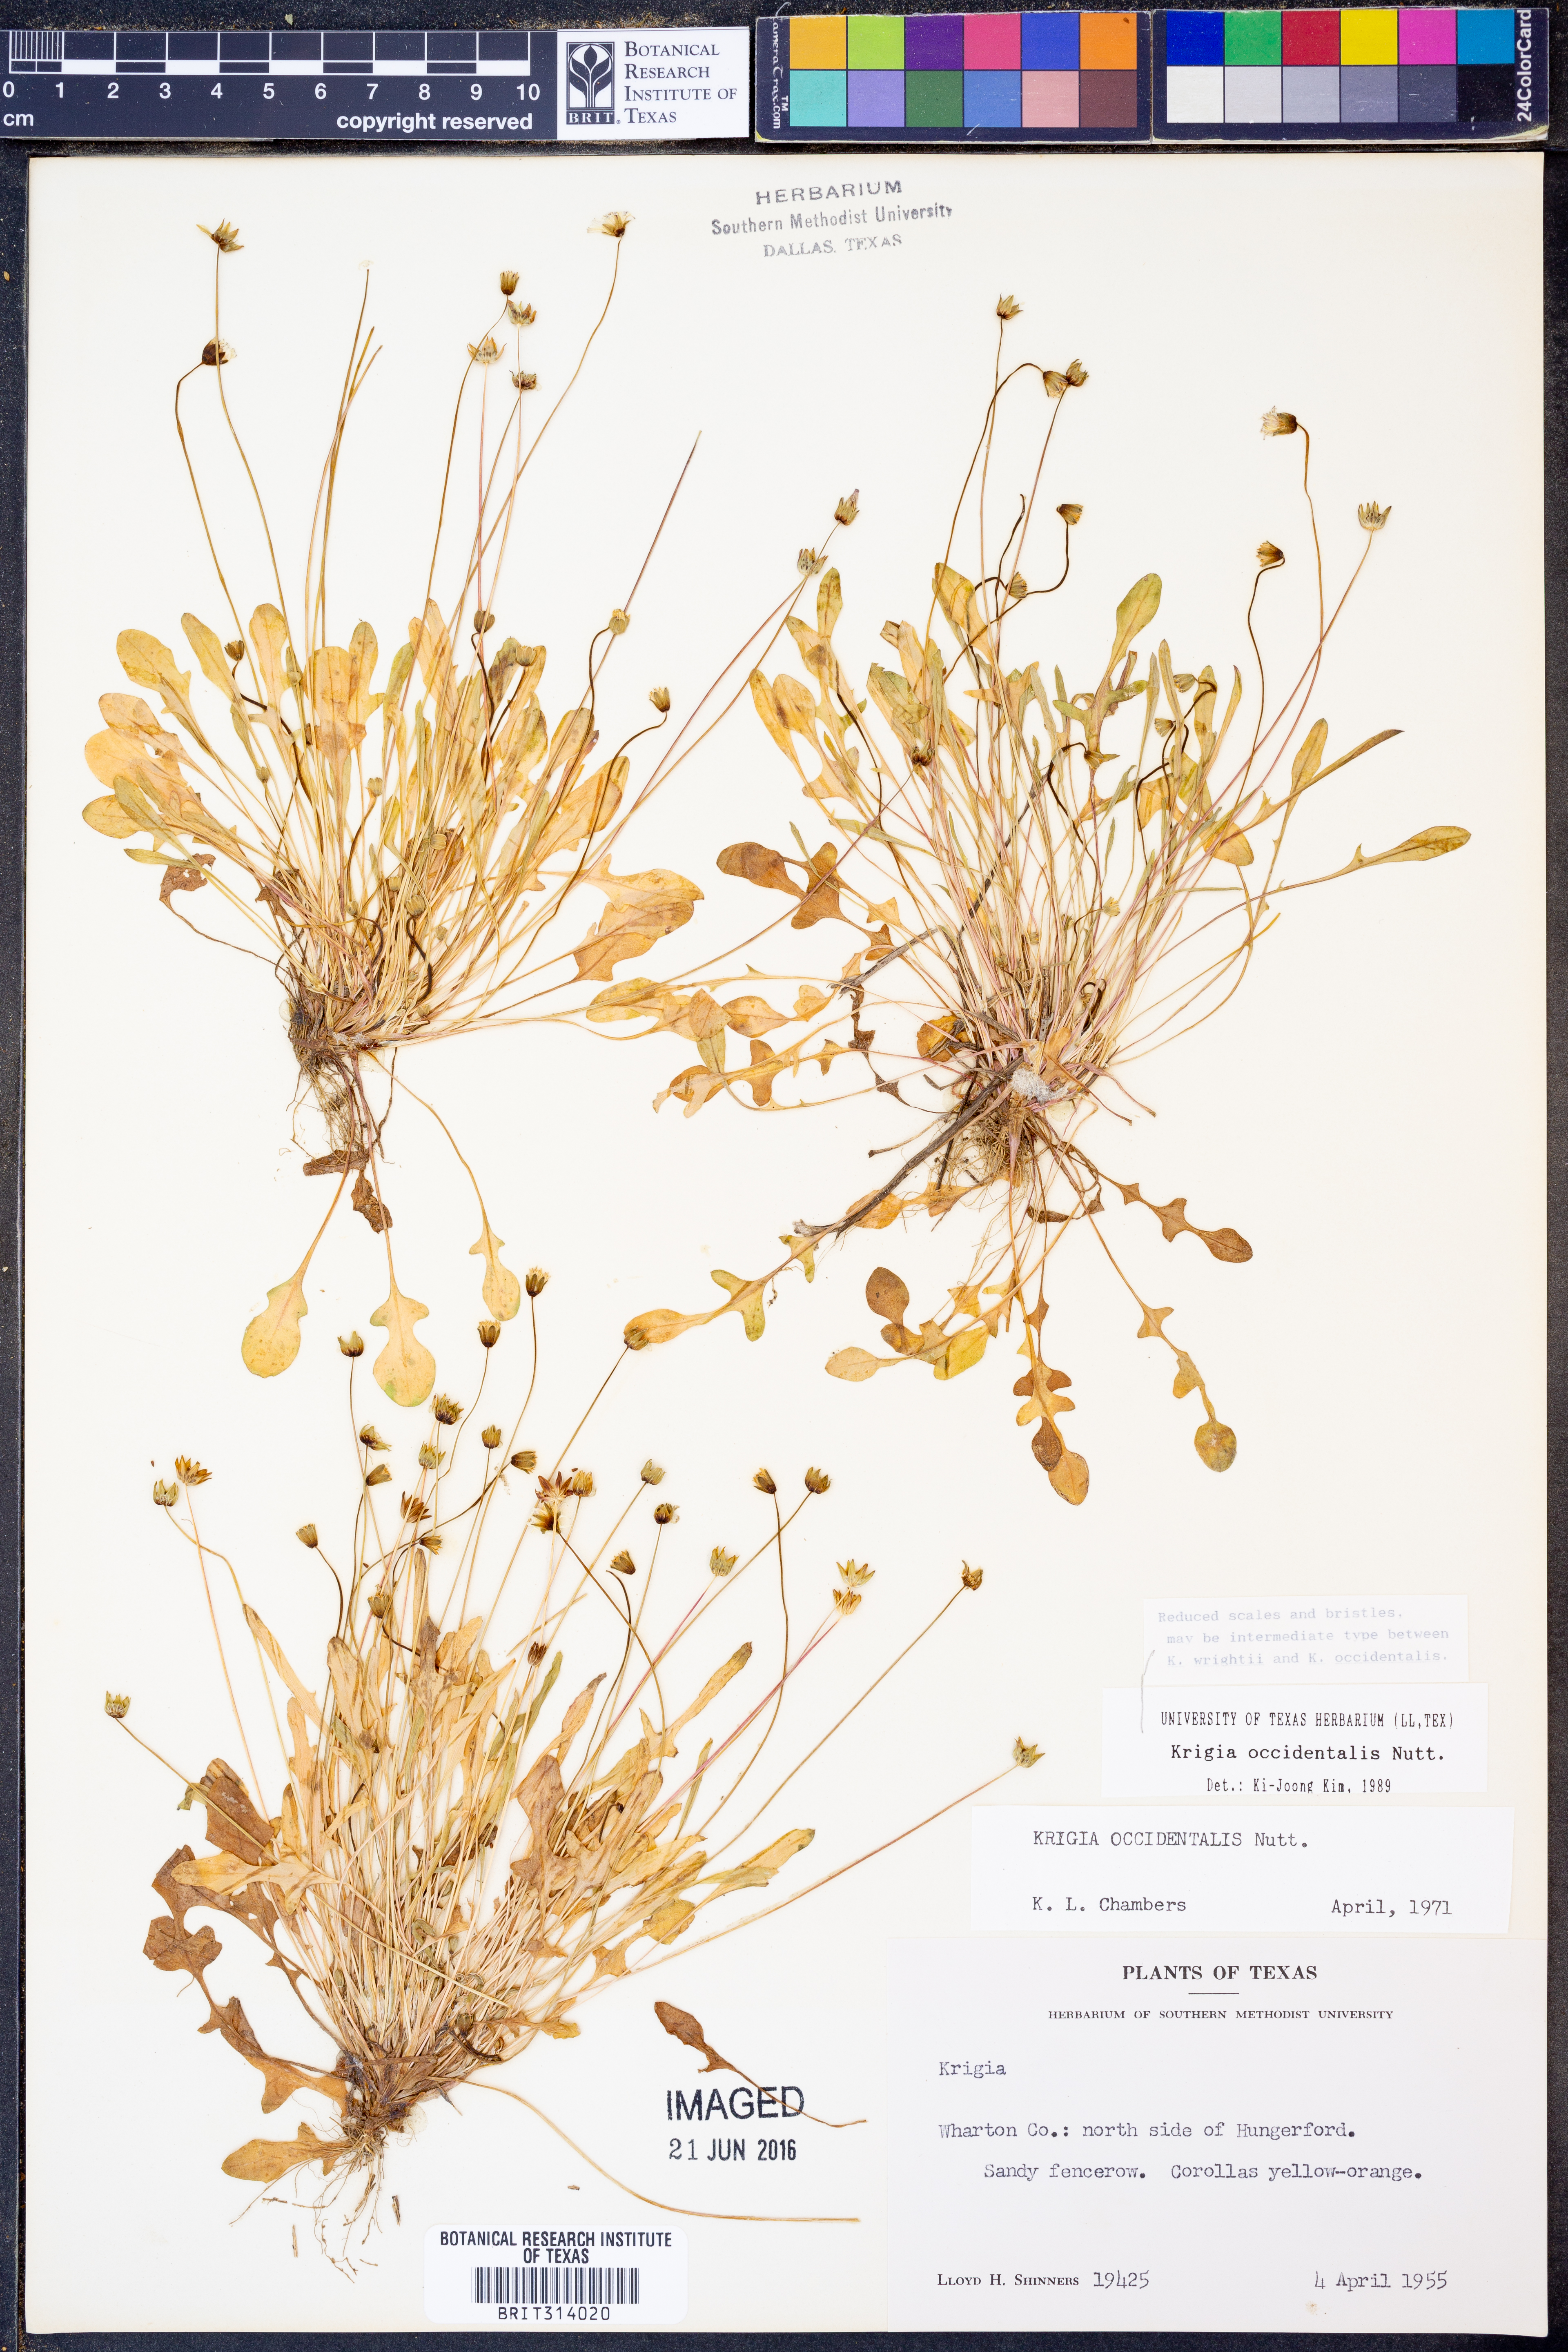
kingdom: Plantae
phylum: Tracheophyta
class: Magnoliopsida
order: Asterales
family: Asteraceae
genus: Krigia
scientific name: Krigia occidentalis
